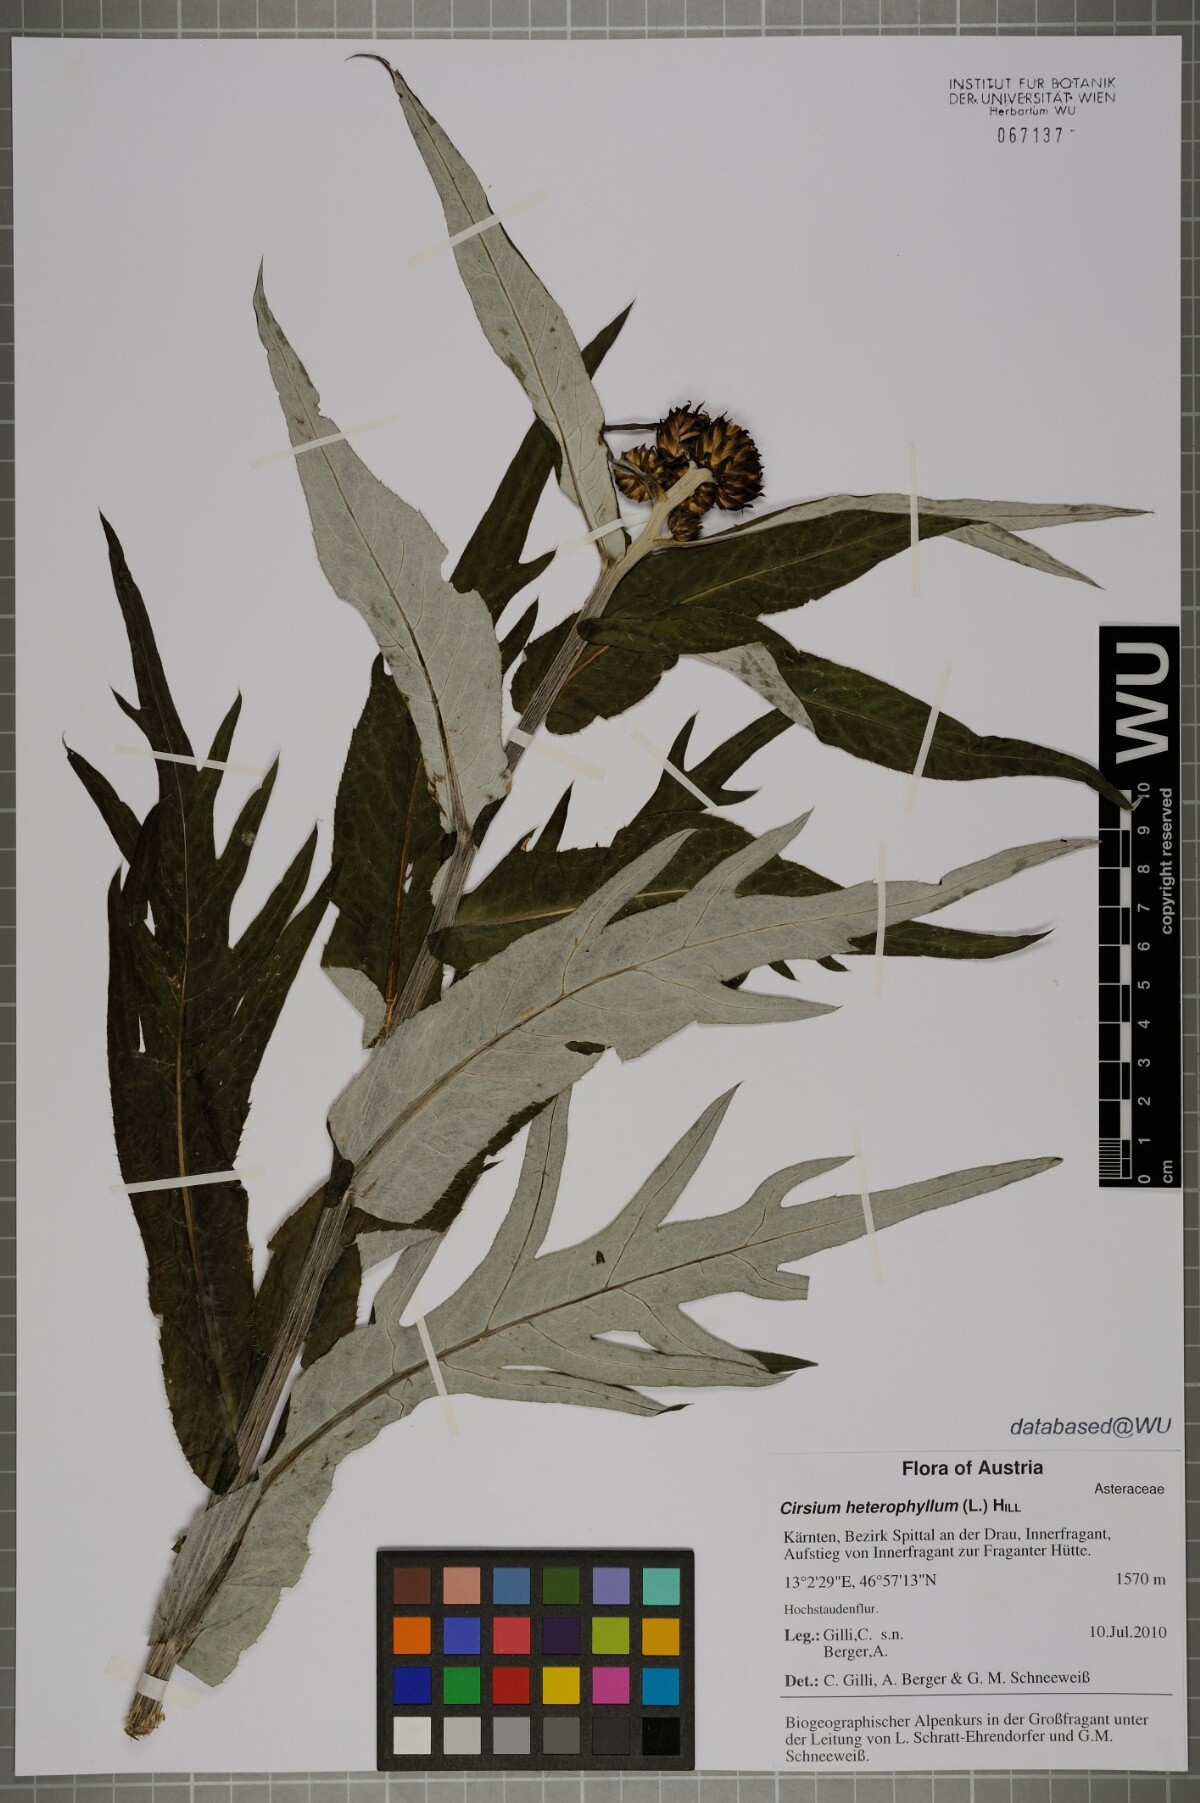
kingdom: Plantae
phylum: Tracheophyta
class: Magnoliopsida
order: Asterales
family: Asteraceae
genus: Cirsium
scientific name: Cirsium heterophyllum
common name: Melancholy thistle
